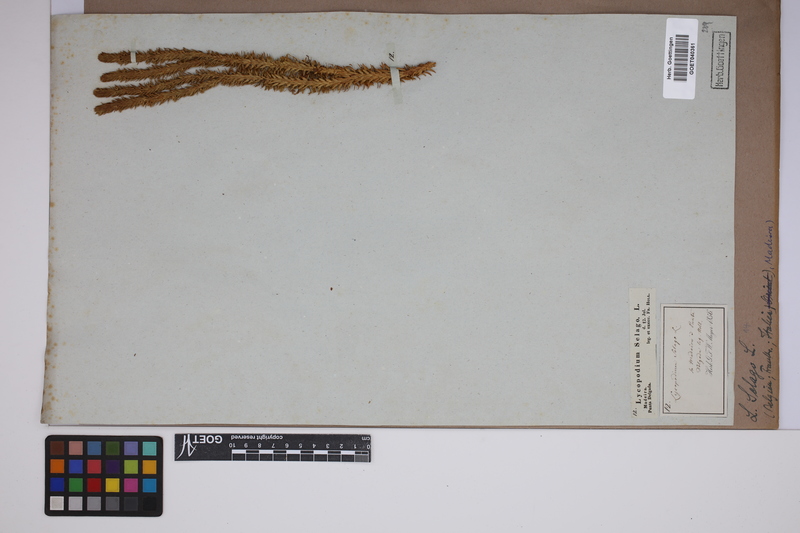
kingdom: Plantae
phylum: Tracheophyta
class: Lycopodiopsida
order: Lycopodiales
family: Lycopodiaceae
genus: Huperzia
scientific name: Huperzia selago
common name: Northern firmoss
